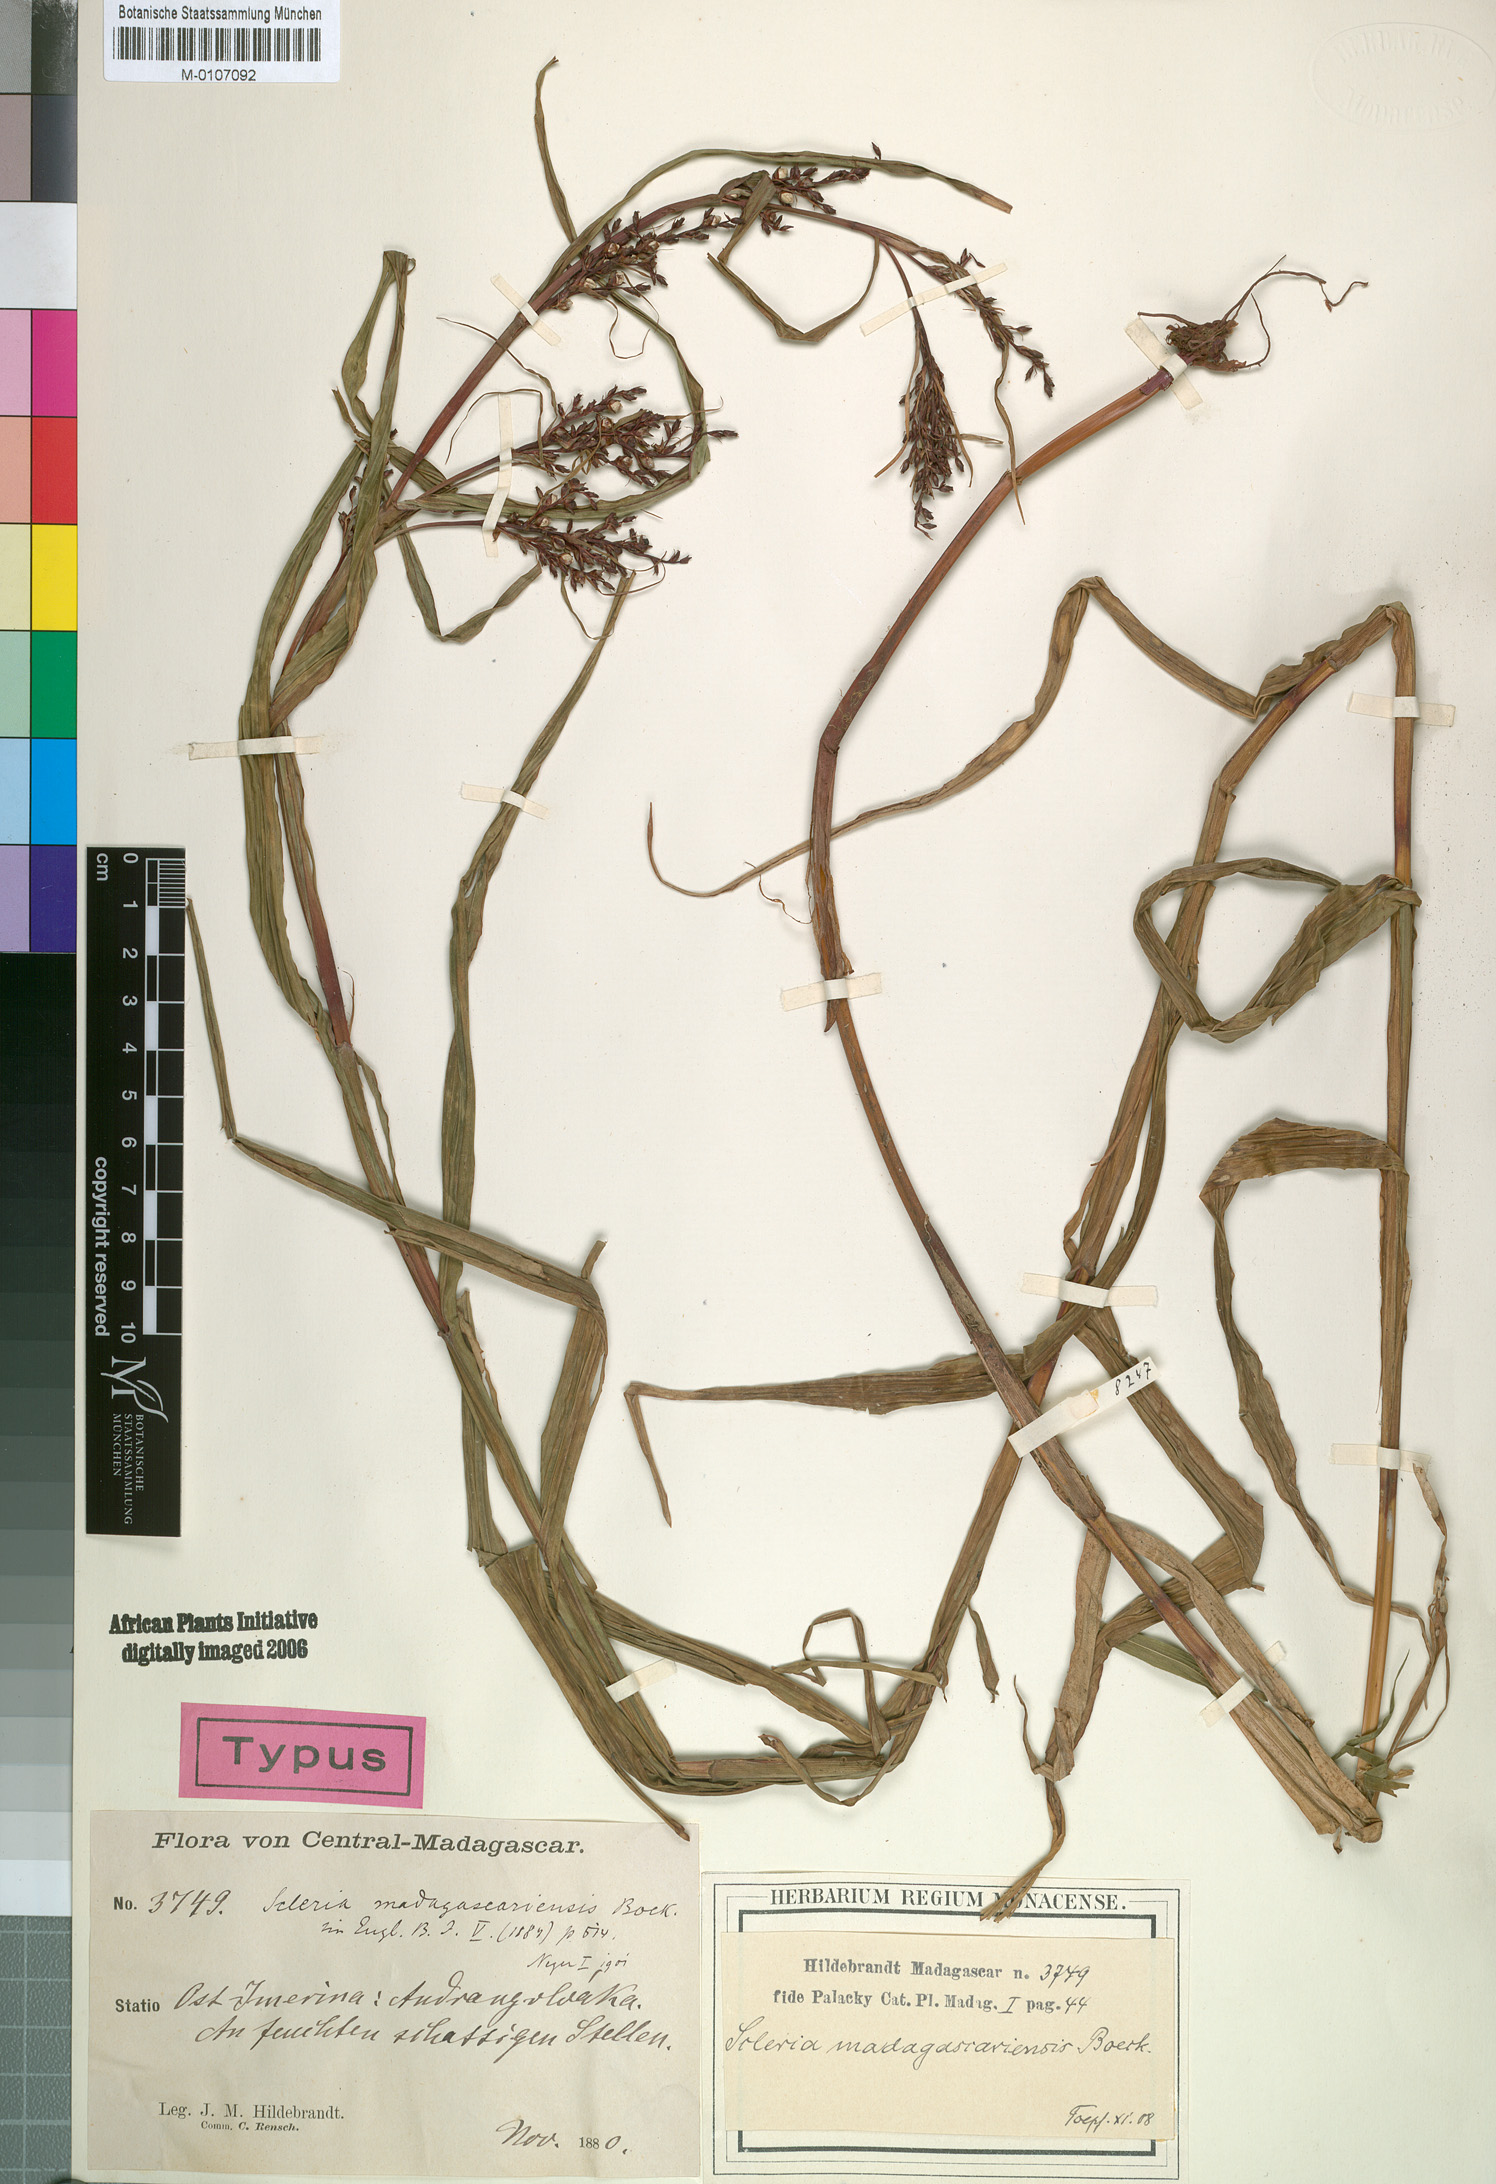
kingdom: Plantae
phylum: Tracheophyta
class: Liliopsida
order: Poales
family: Cyperaceae
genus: Scleria
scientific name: Scleria madagascariensis
